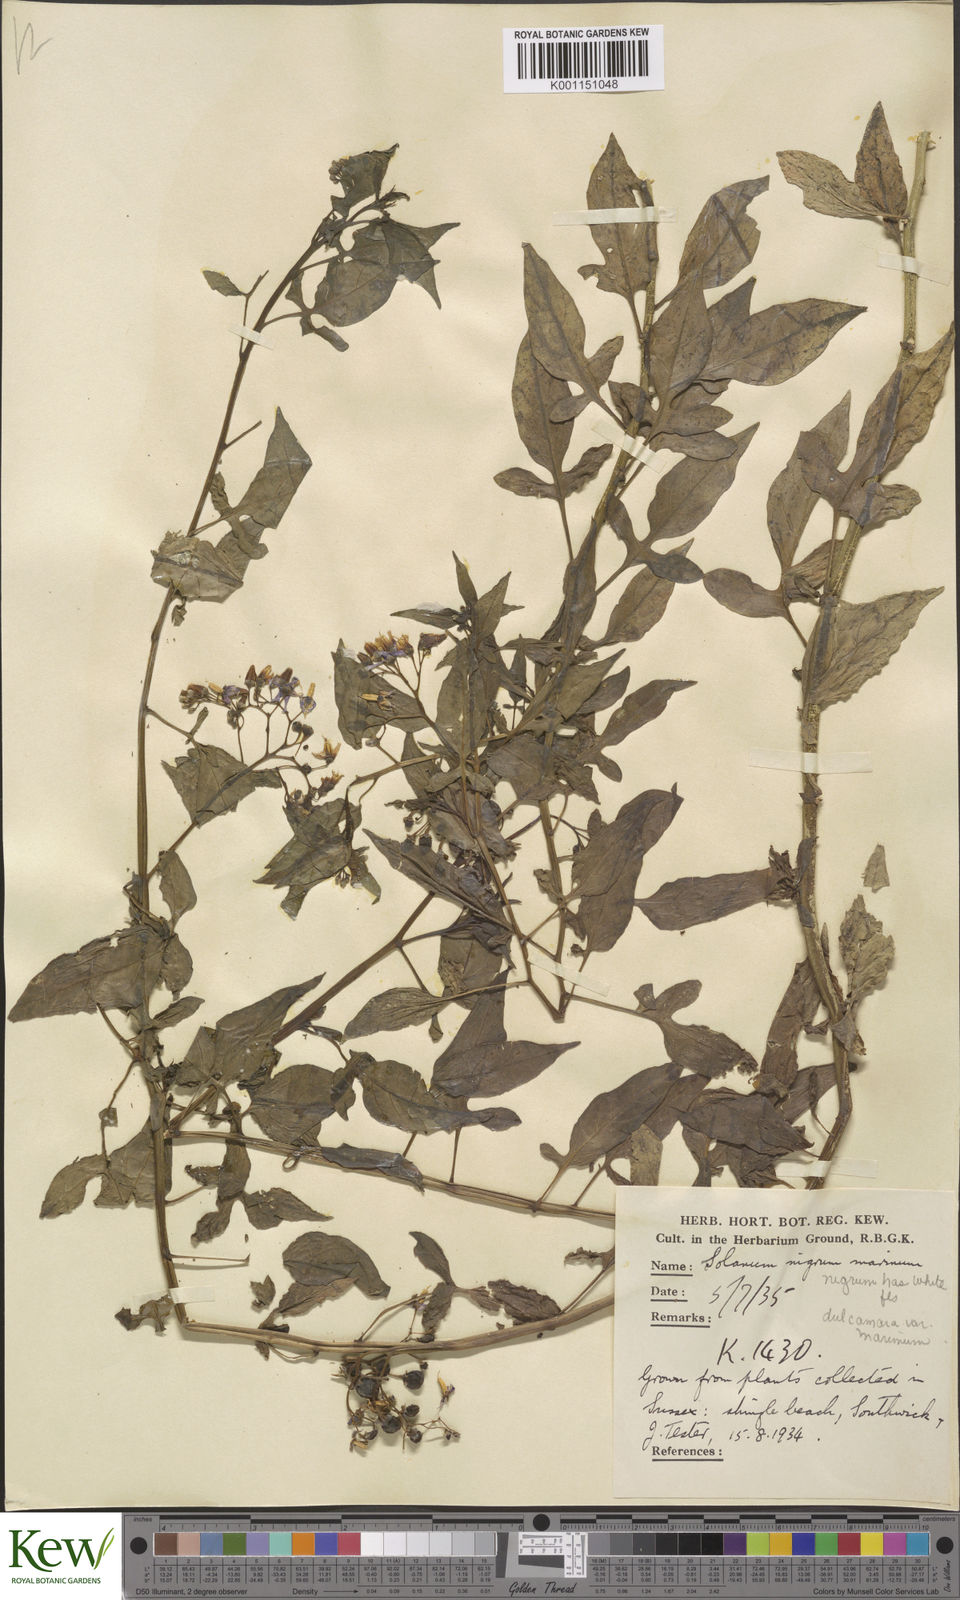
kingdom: Plantae
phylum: Tracheophyta
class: Magnoliopsida
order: Solanales
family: Solanaceae
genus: Solanum
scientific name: Solanum dulcamara
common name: Climbing nightshade
